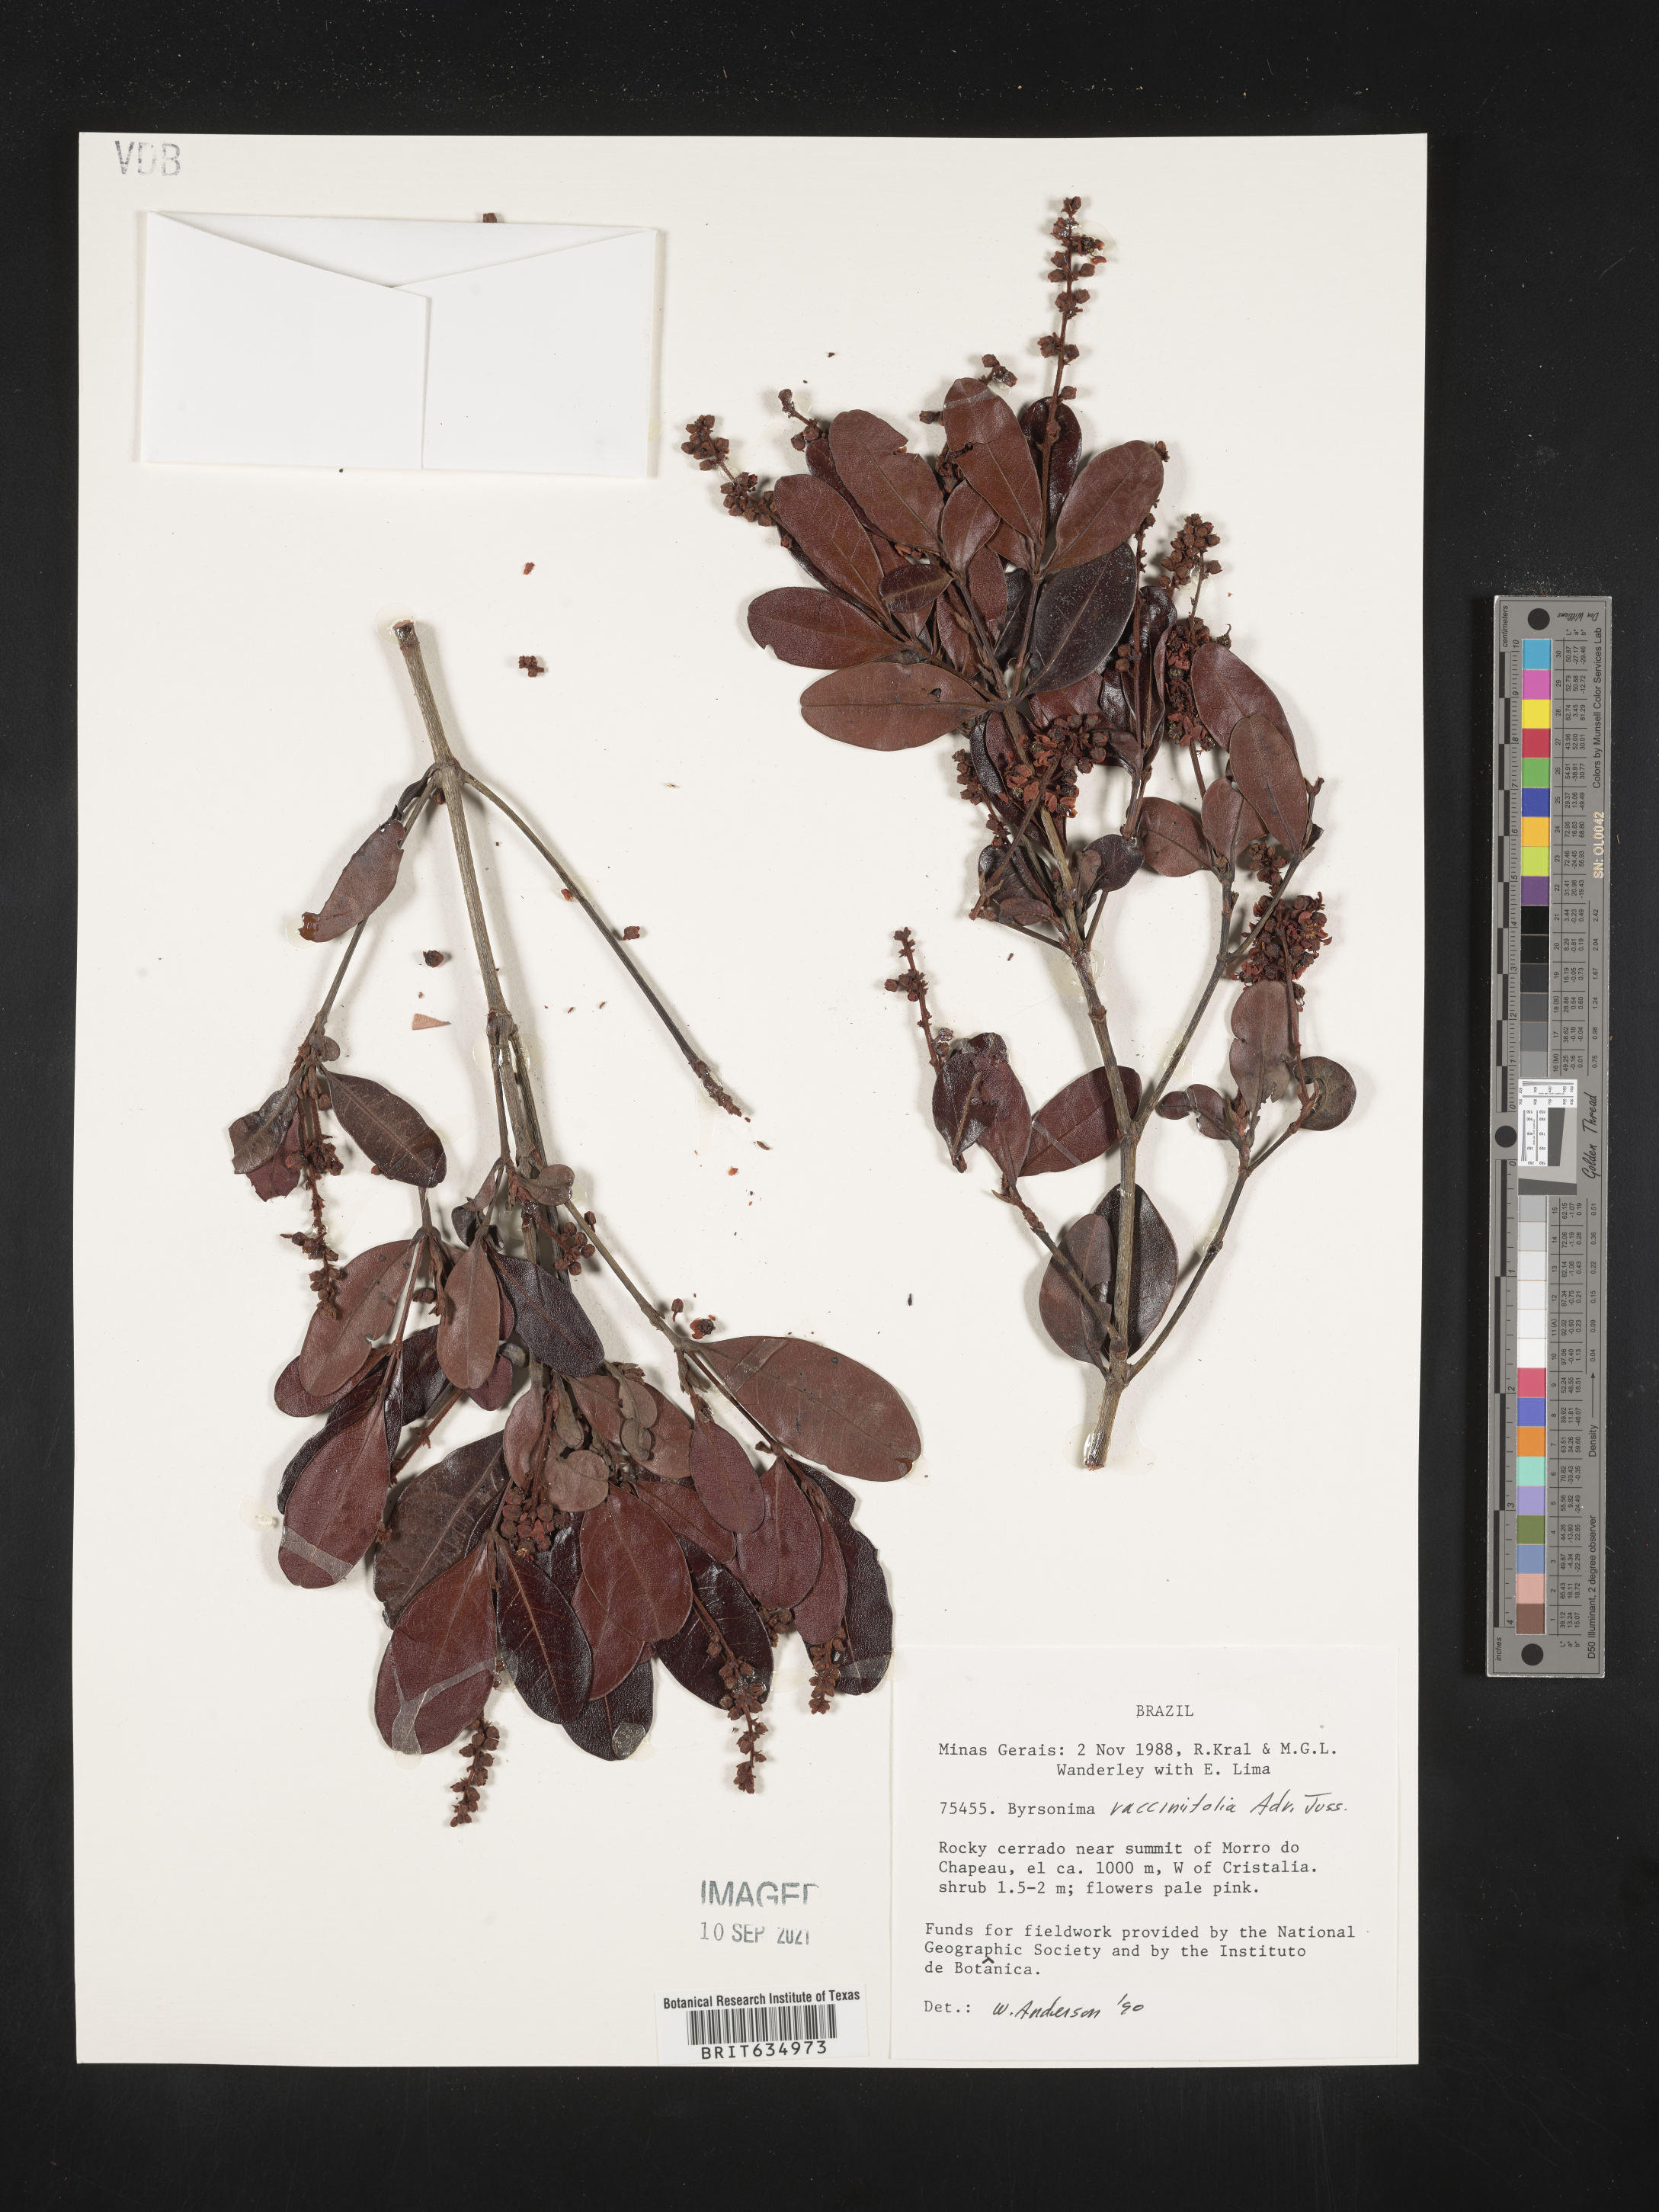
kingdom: Plantae
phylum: Tracheophyta
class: Magnoliopsida
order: Malpighiales
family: Malpighiaceae
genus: Byrsonima
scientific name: Byrsonima
